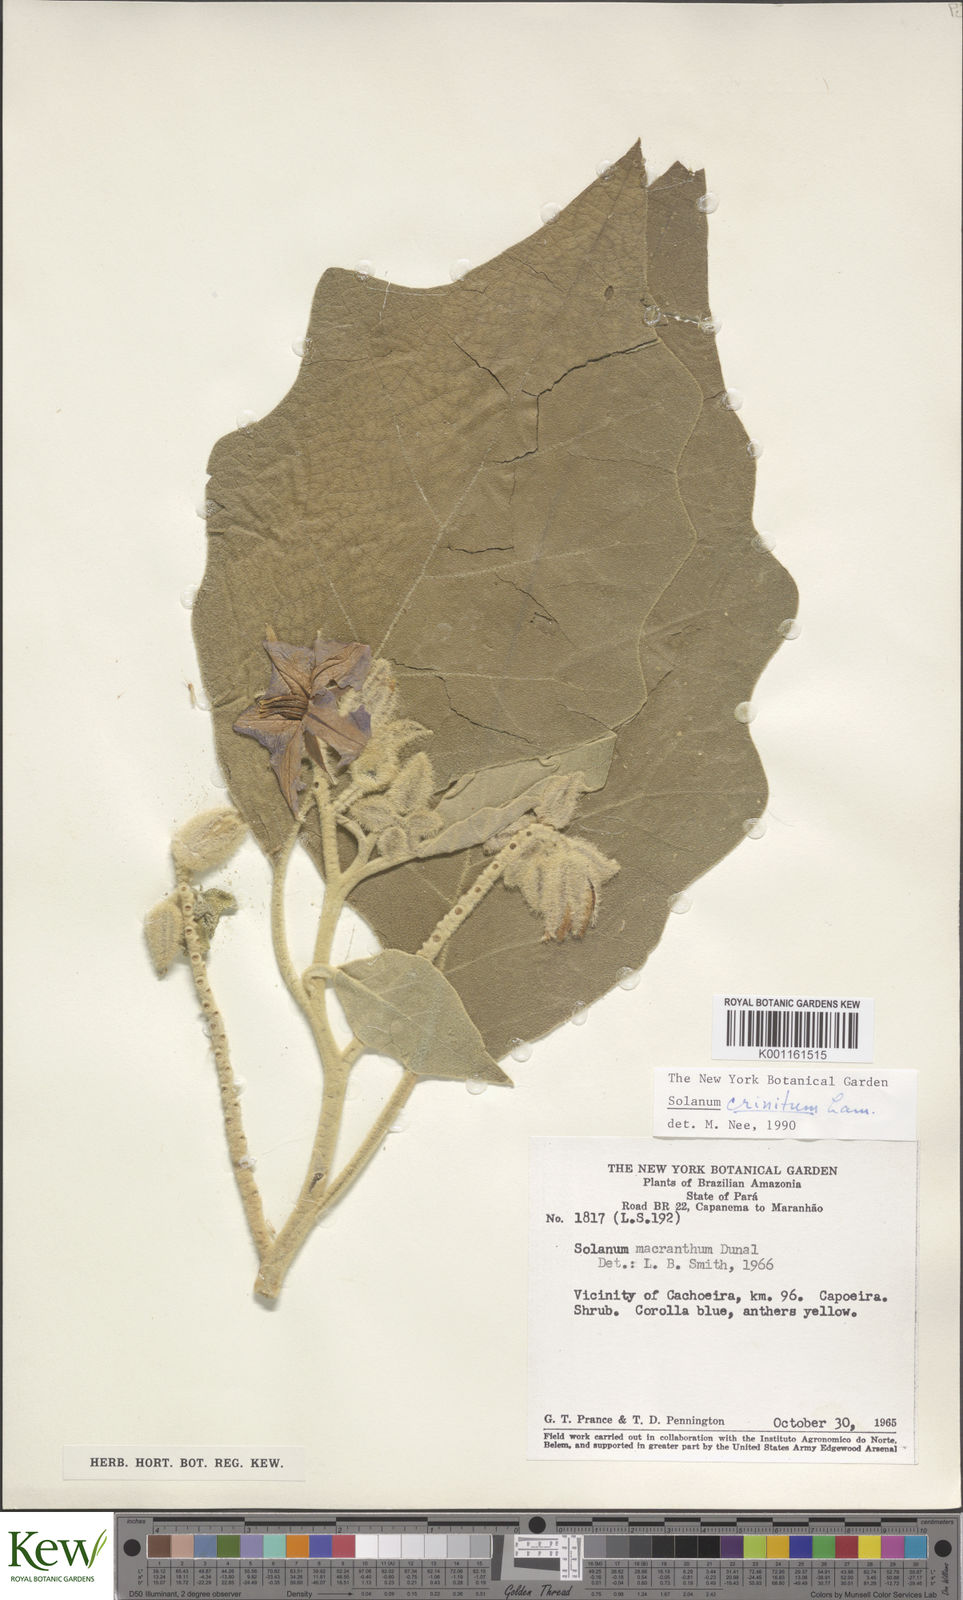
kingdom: Plantae
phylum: Tracheophyta
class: Magnoliopsida
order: Solanales
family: Solanaceae
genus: Solanum
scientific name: Solanum crinitum
